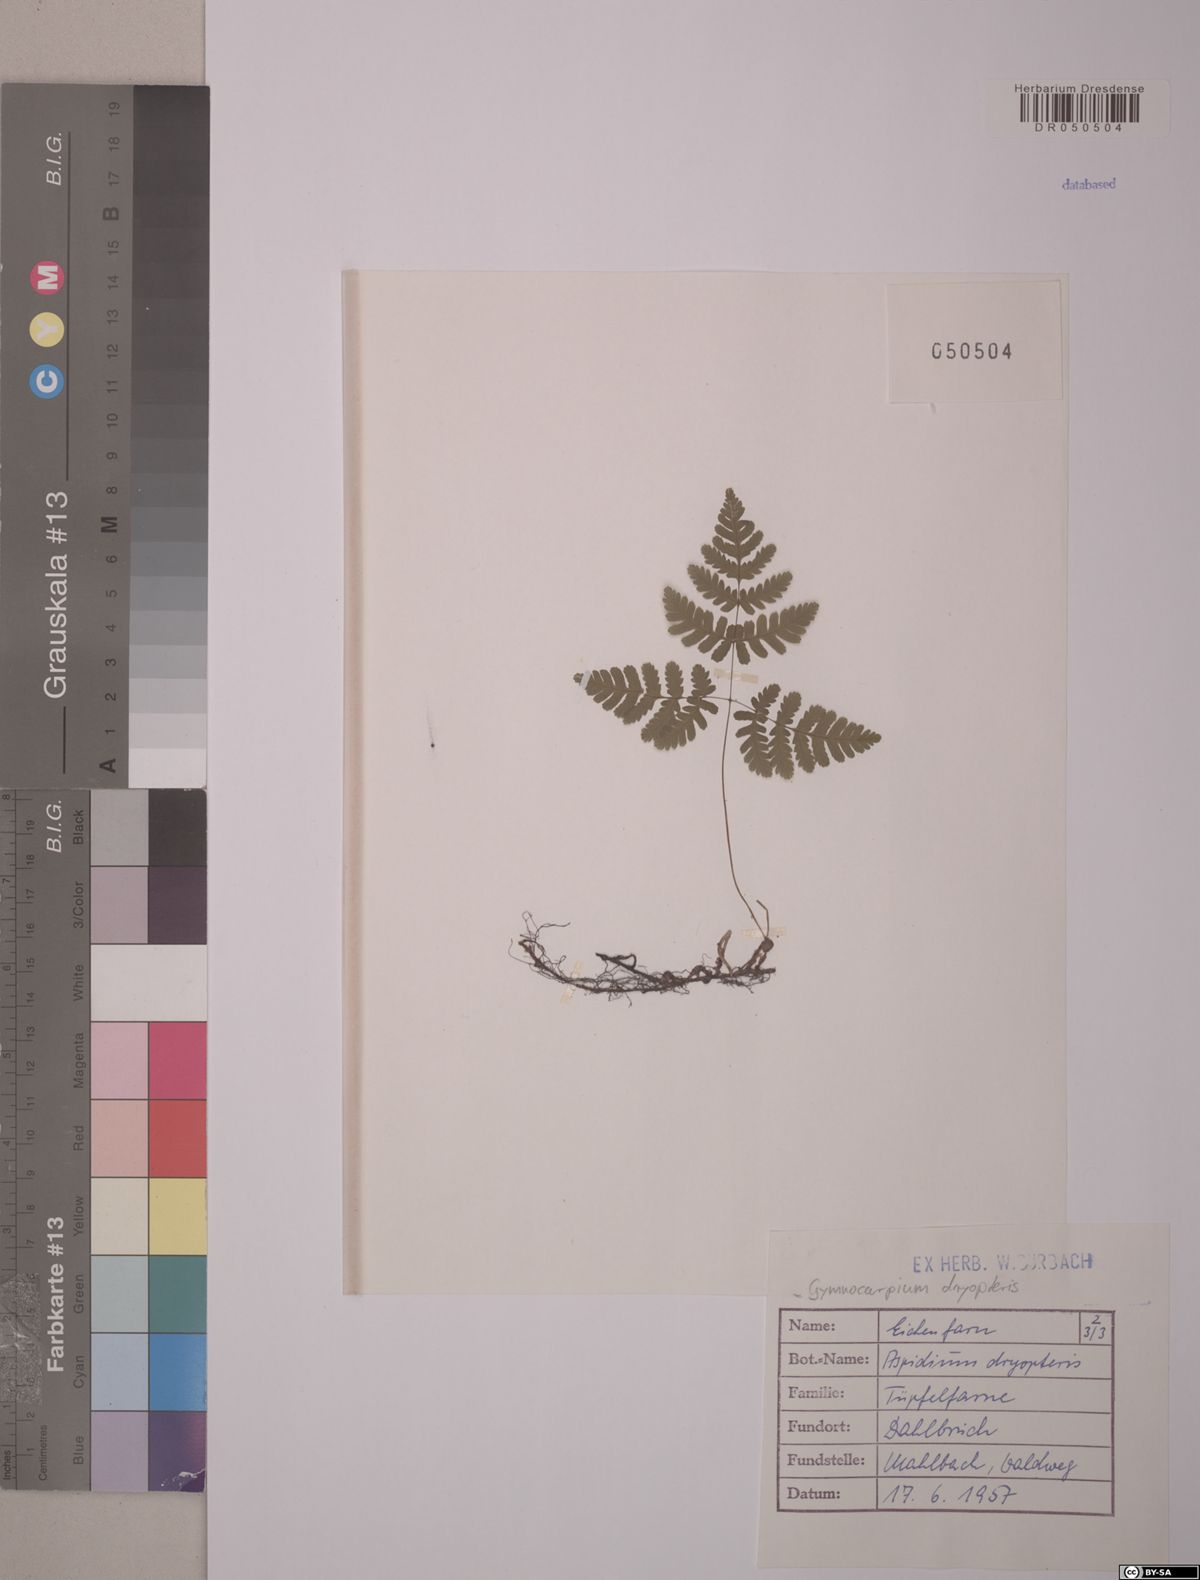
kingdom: Plantae
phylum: Tracheophyta
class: Polypodiopsida
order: Polypodiales
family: Cystopteridaceae
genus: Gymnocarpium
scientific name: Gymnocarpium dryopteris
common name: Oak fern
